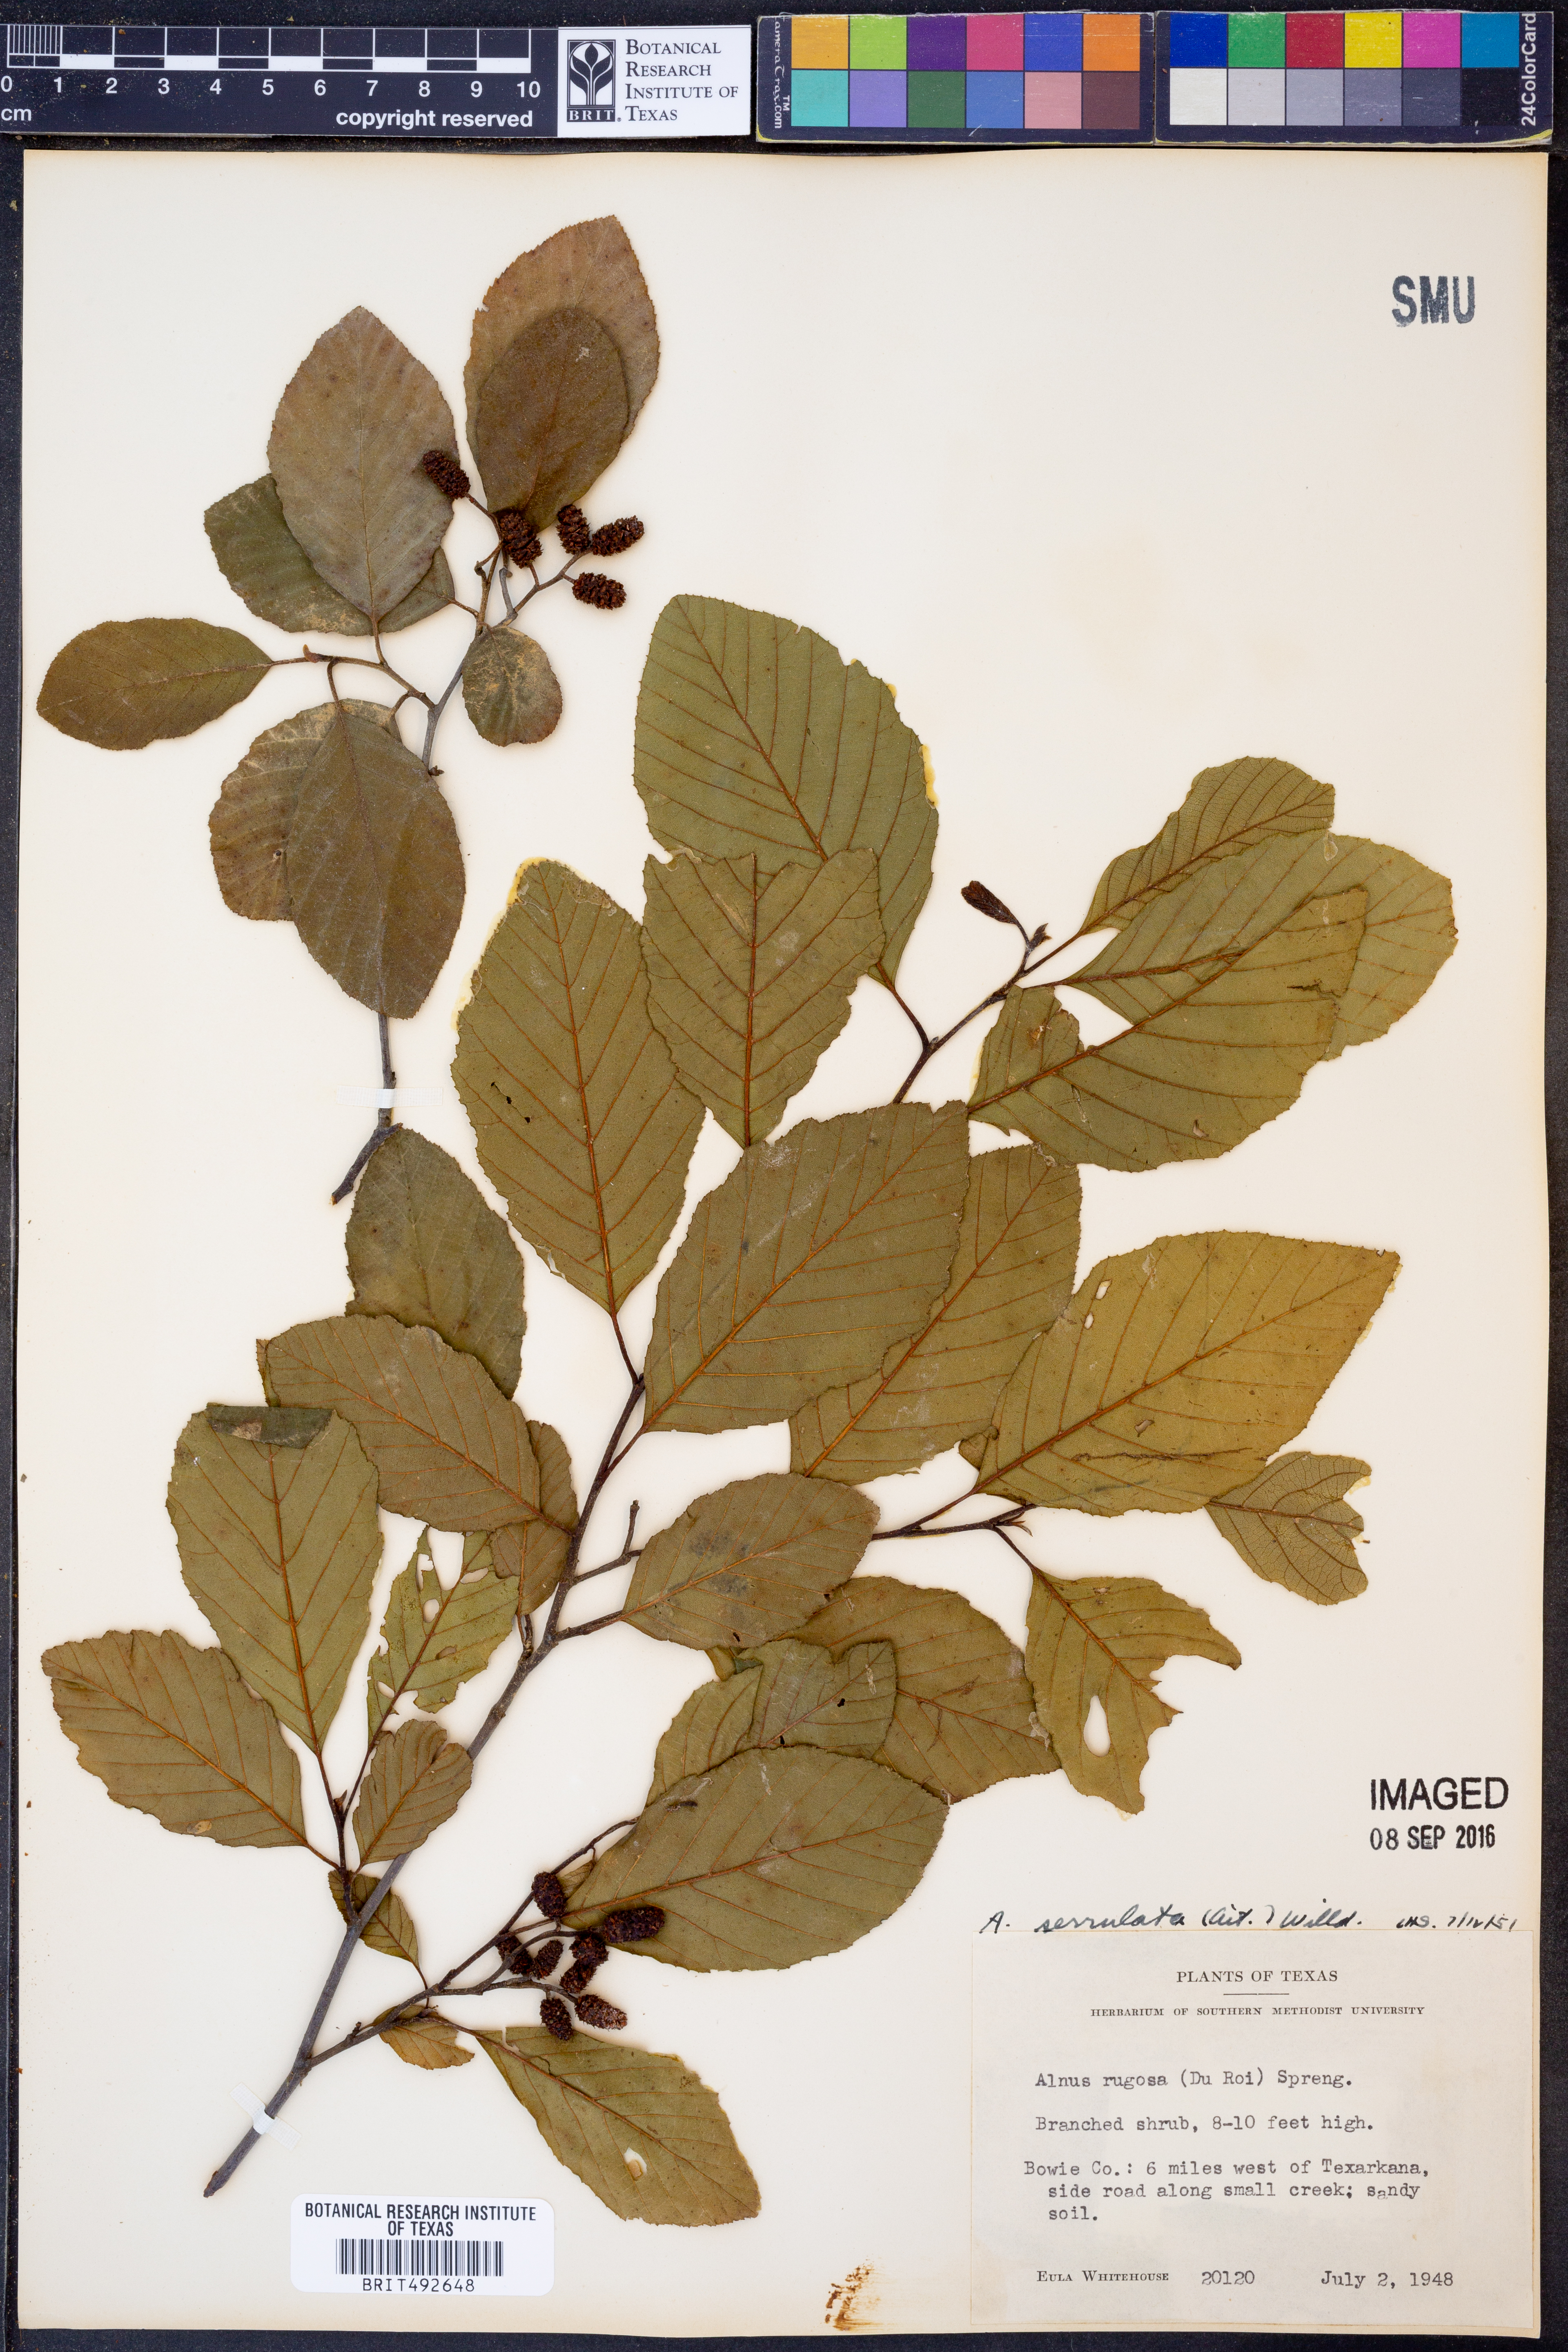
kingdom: Plantae
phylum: Tracheophyta
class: Magnoliopsida
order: Fagales
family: Betulaceae
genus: Alnus
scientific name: Alnus serrulata
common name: Hazel alder
